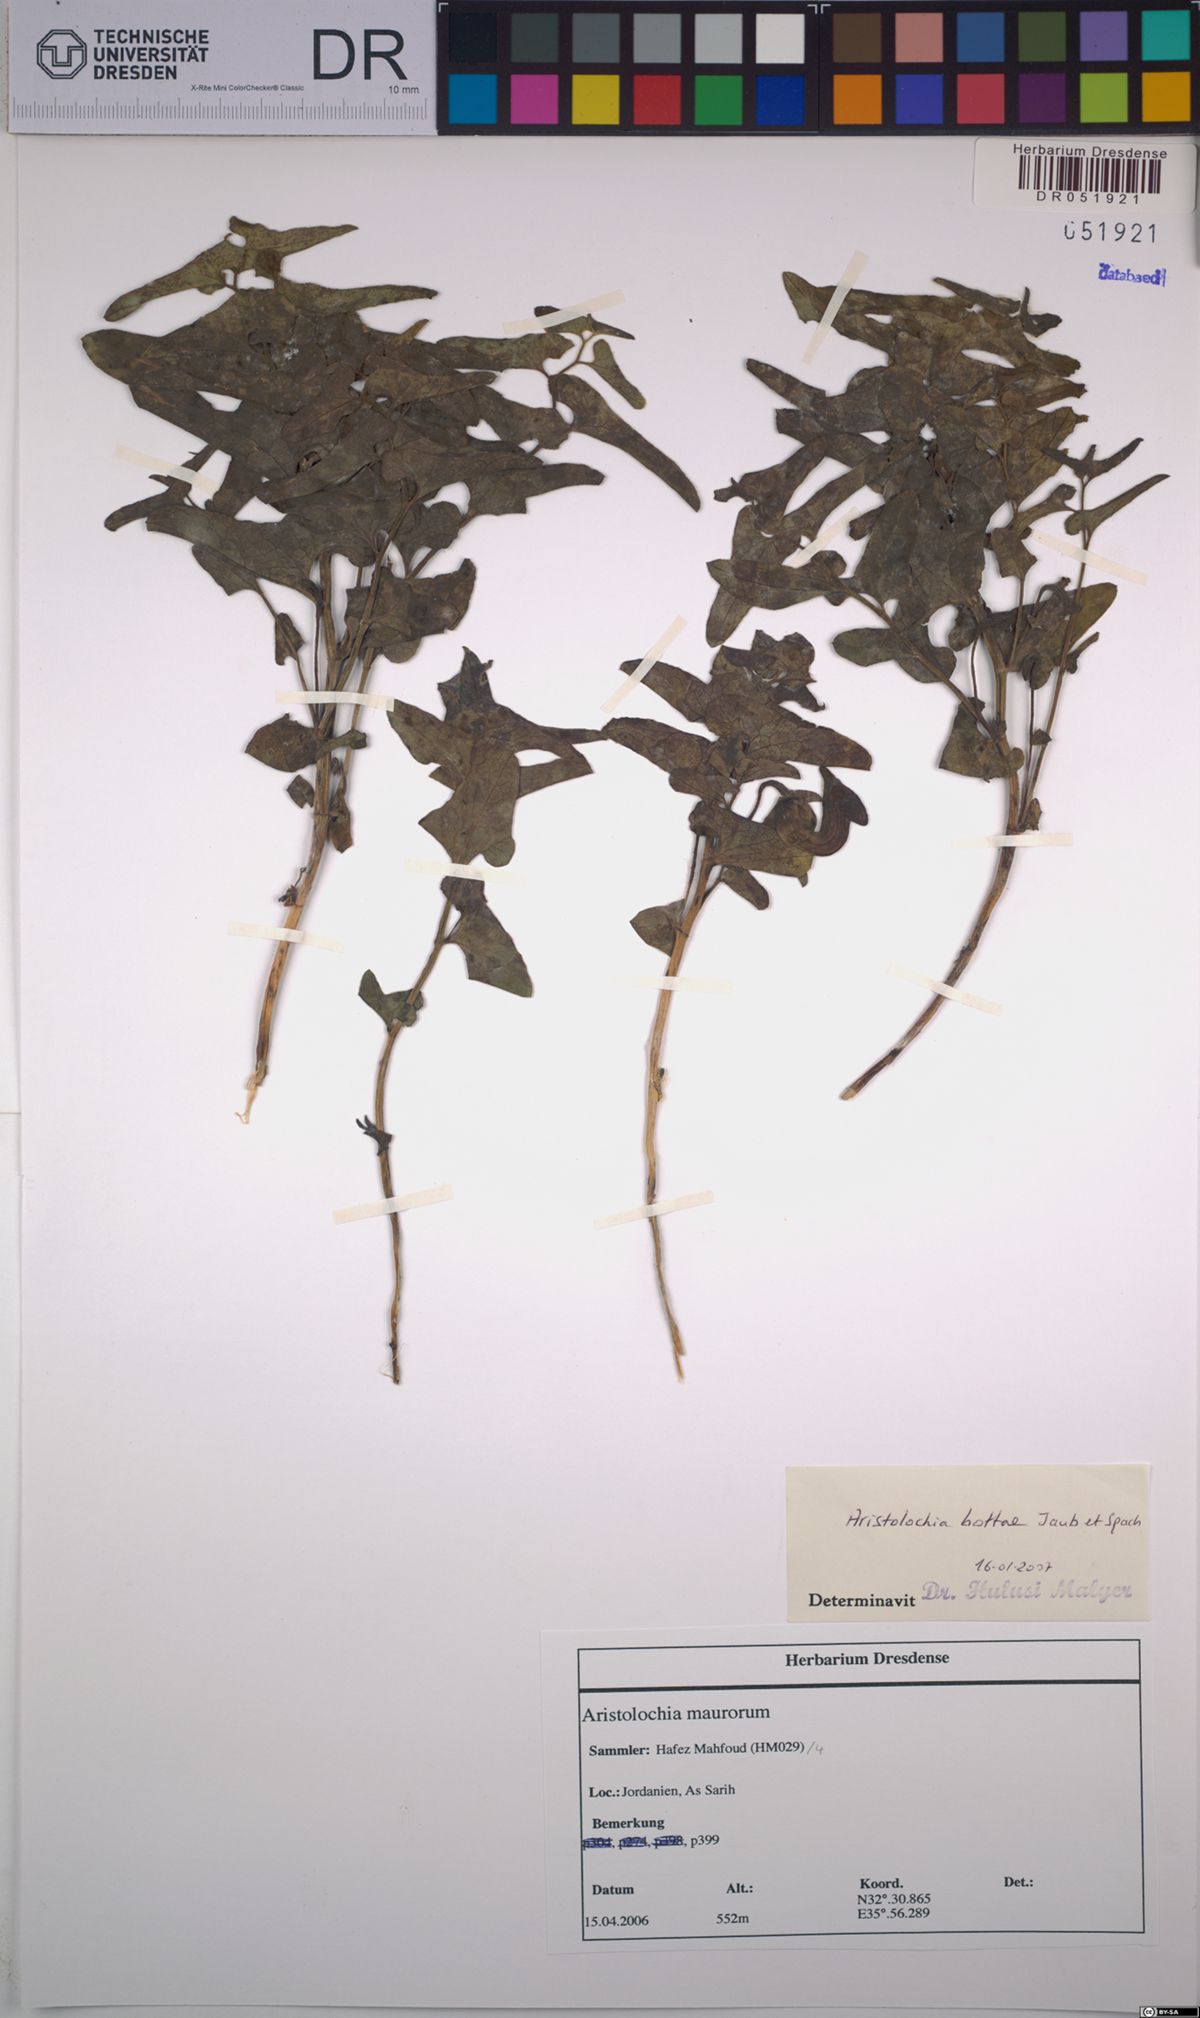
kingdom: Plantae
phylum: Tracheophyta
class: Magnoliopsida
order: Piperales
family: Aristolochiaceae
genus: Aristolochia
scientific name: Aristolochia bottae
